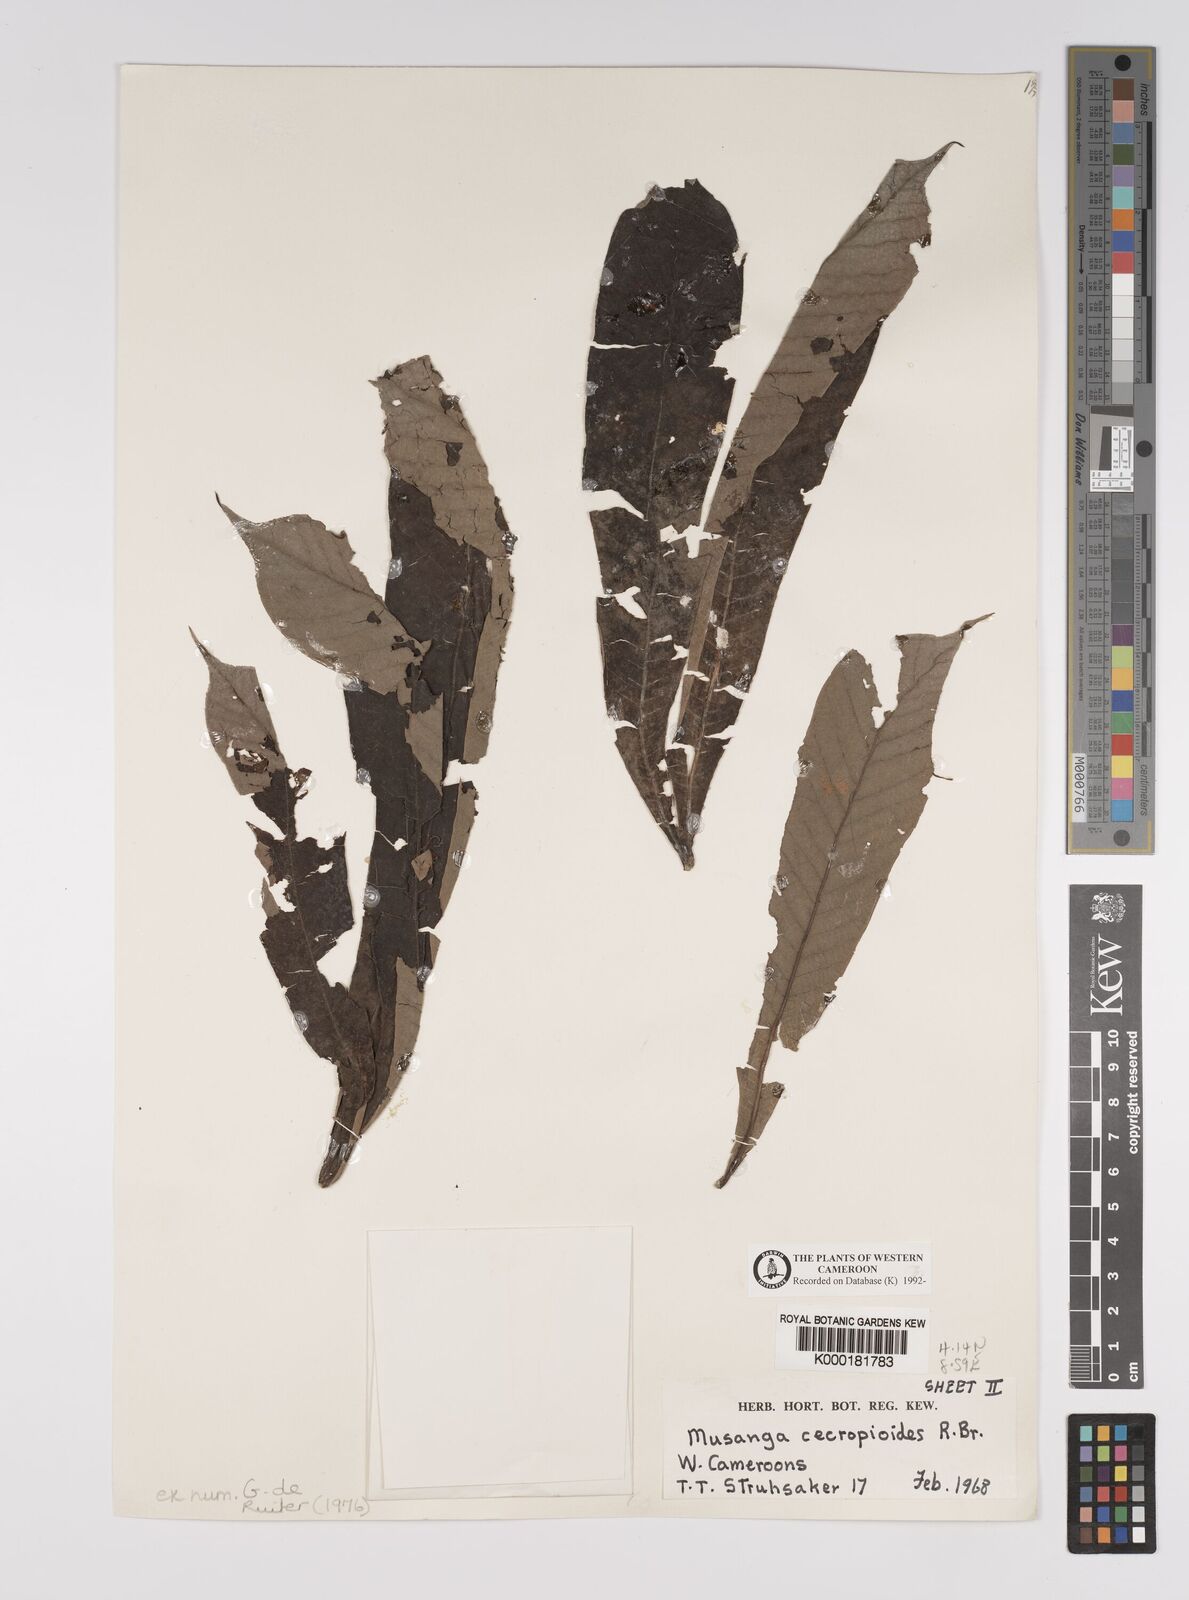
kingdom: Plantae
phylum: Tracheophyta
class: Magnoliopsida
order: Rosales
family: Urticaceae
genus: Musanga
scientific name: Musanga cecropioides
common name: African corkwood
